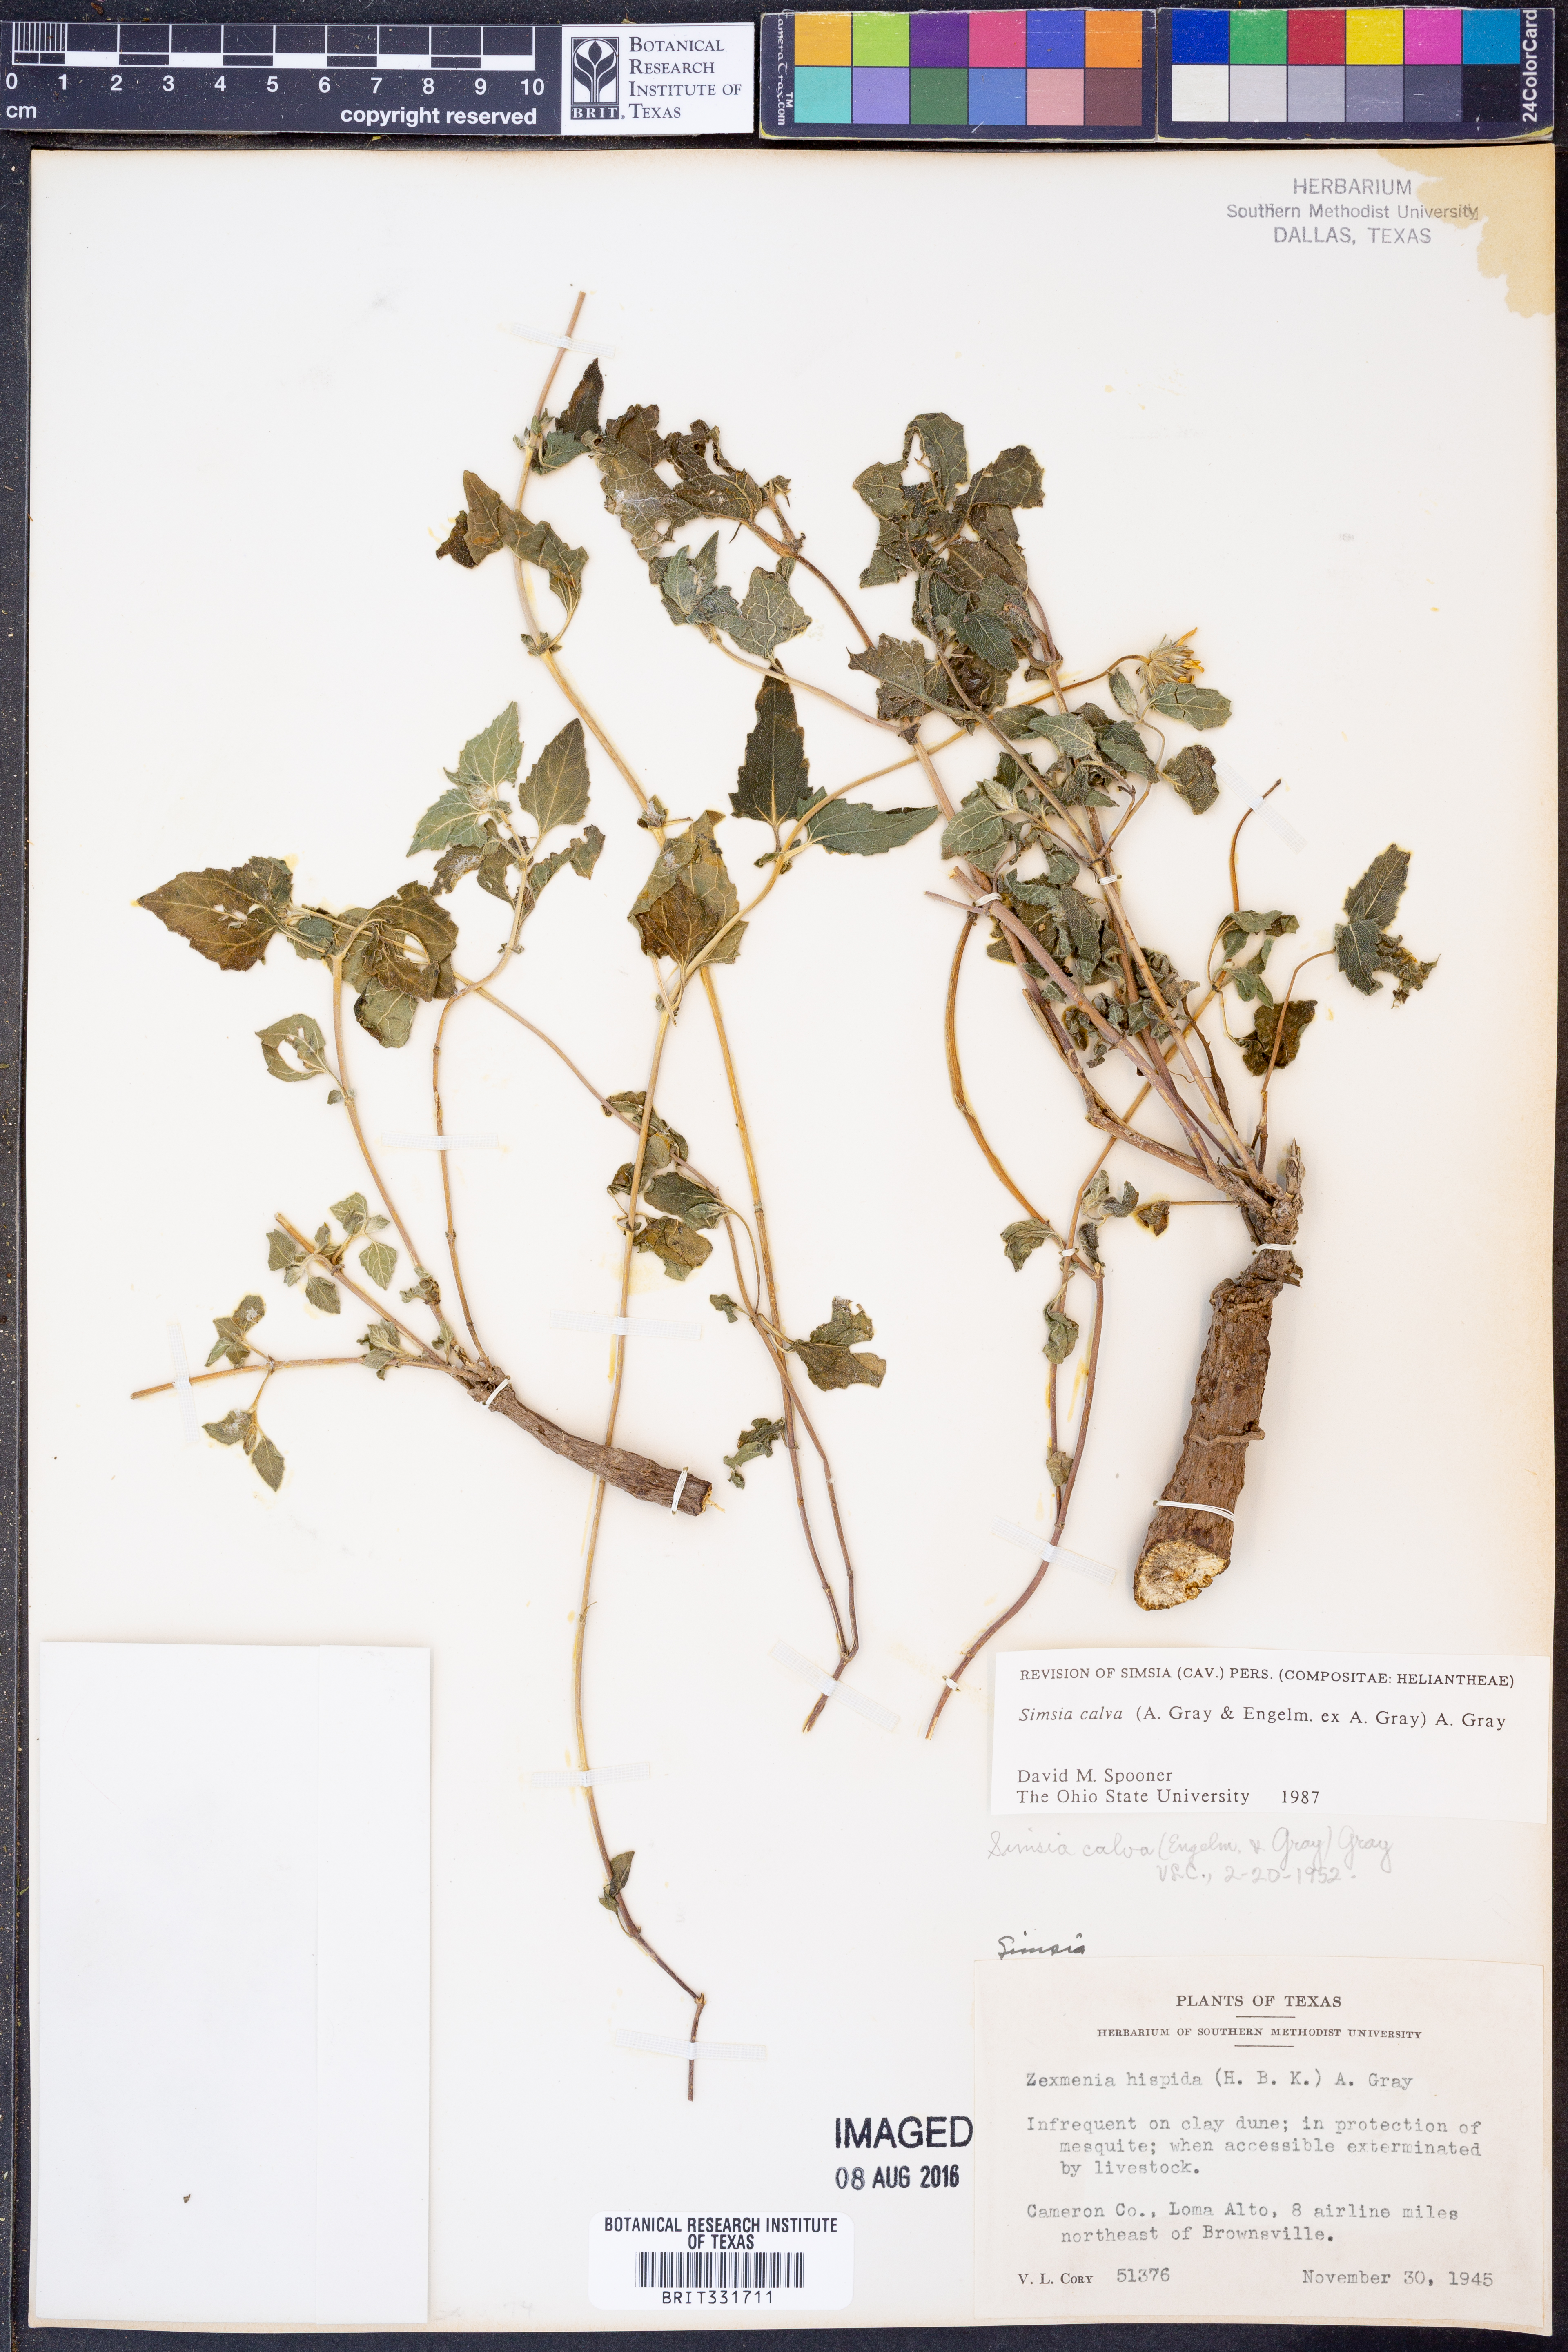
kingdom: Plantae
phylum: Tracheophyta
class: Magnoliopsida
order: Asterales
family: Asteraceae
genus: Simsia
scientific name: Simsia calva
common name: Awnless bush-sunflower
